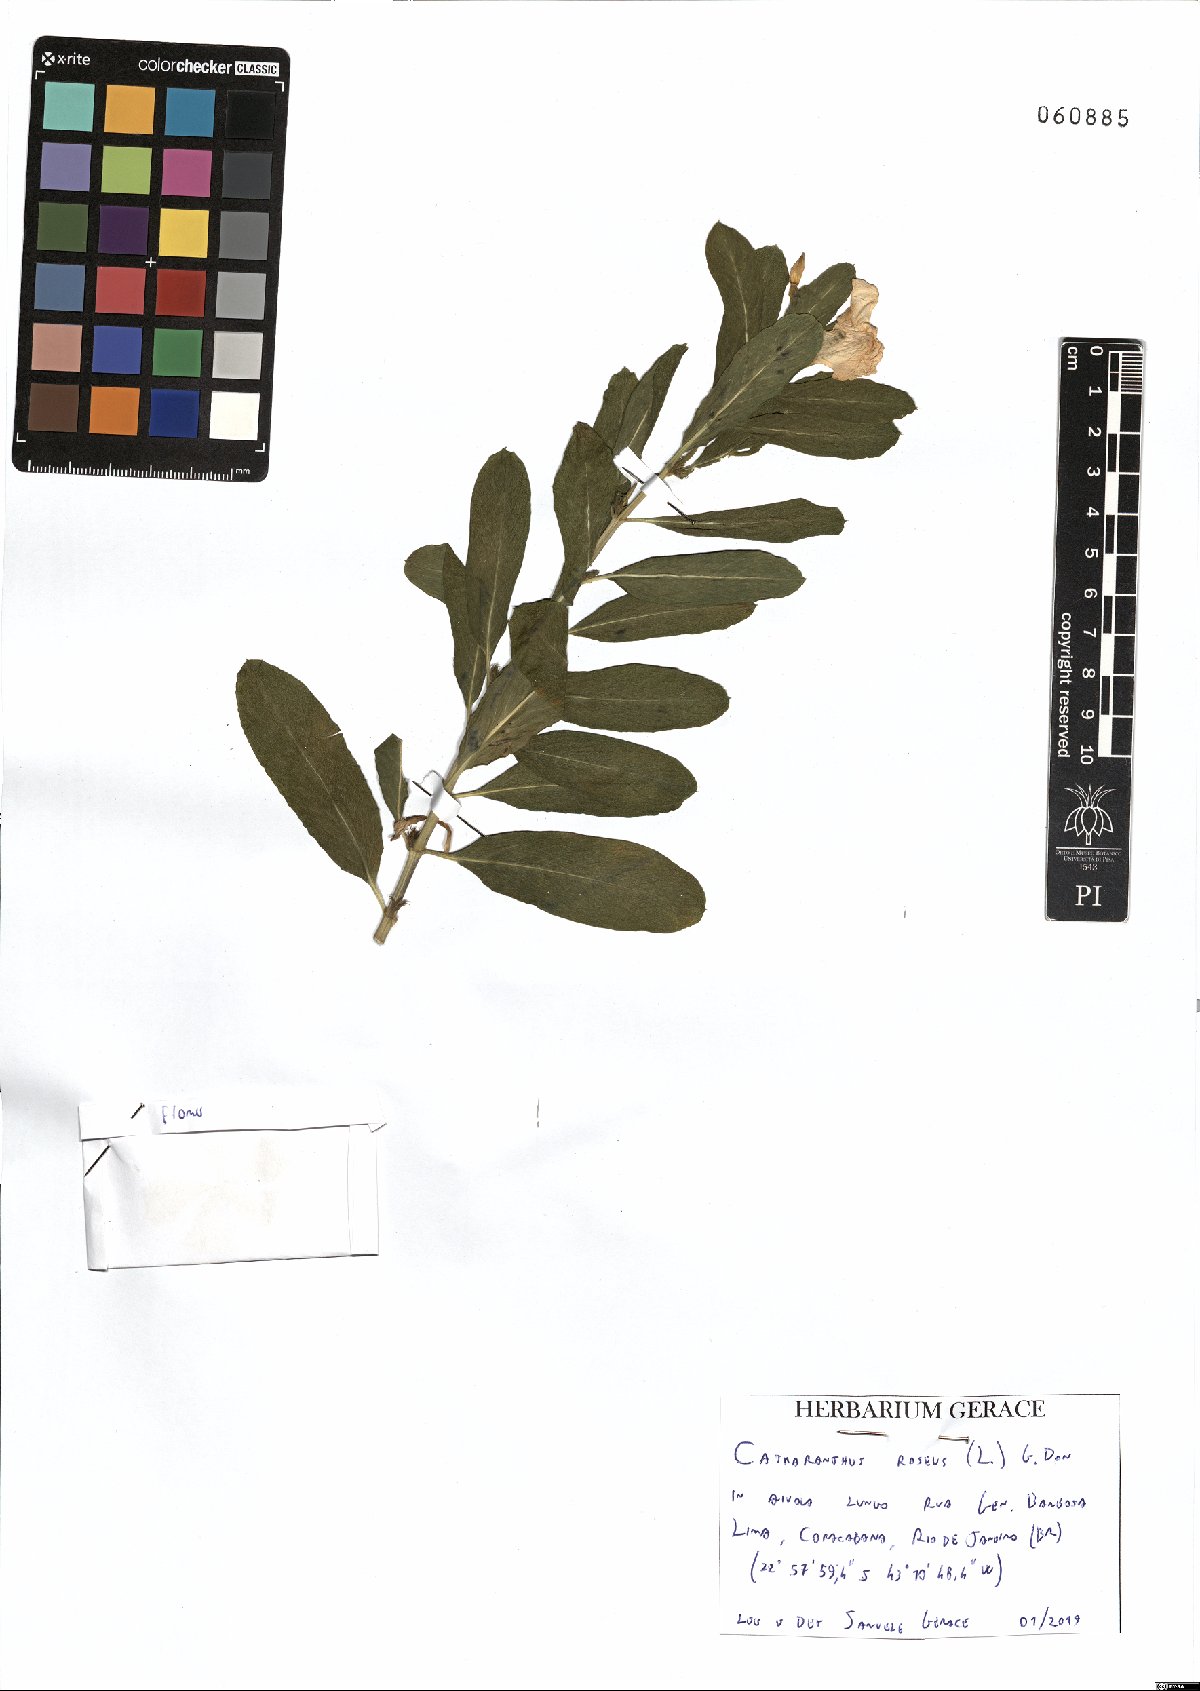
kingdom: Plantae
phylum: Tracheophyta
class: Magnoliopsida
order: Gentianales
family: Apocynaceae
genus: Catharanthus
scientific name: Catharanthus roseus
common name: Madagascar periwinkle
